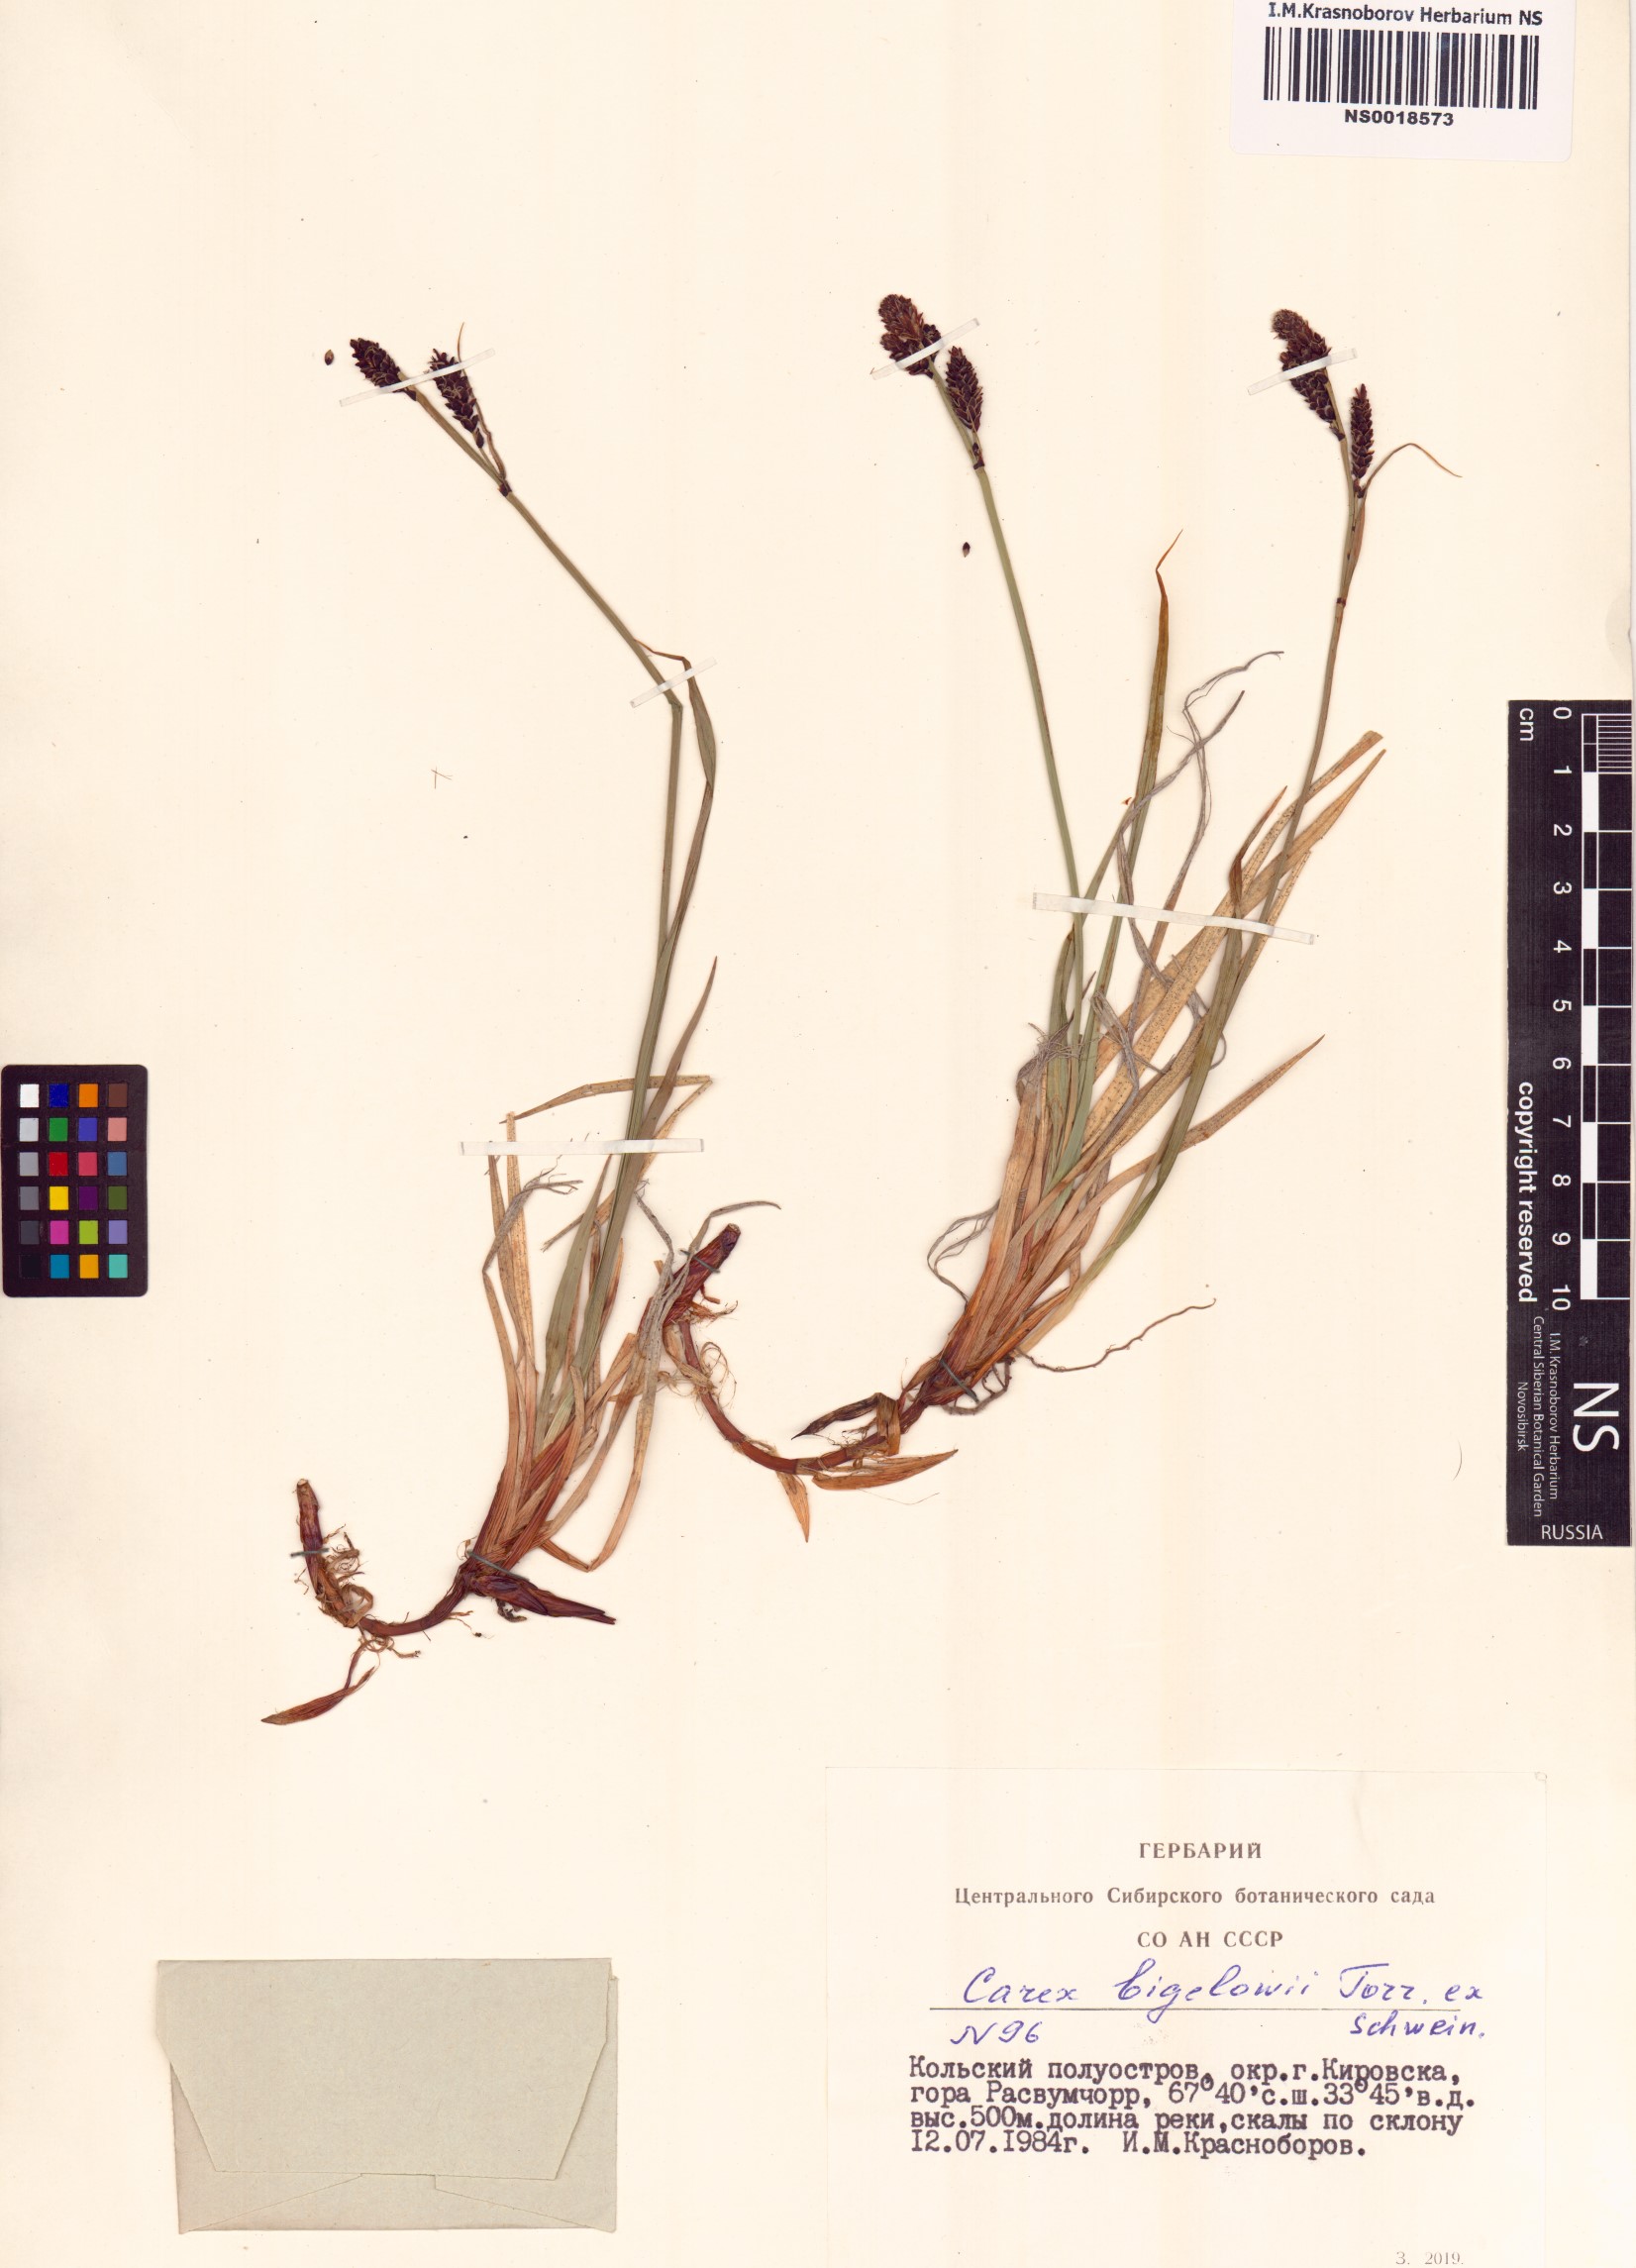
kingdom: Plantae
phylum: Tracheophyta
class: Liliopsida
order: Poales
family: Cyperaceae
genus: Carex
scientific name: Carex bigelowii
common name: Stiff sedge
